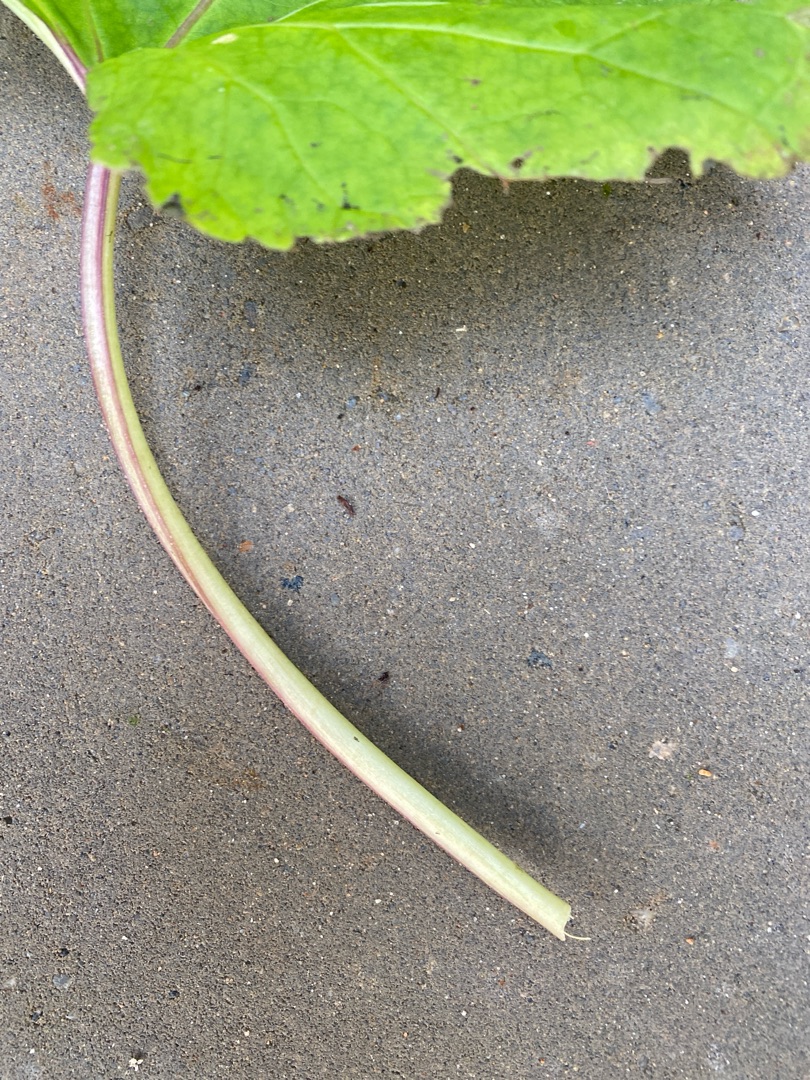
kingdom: Plantae
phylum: Tracheophyta
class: Magnoliopsida
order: Asterales
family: Asteraceae
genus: Tussilago
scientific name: Tussilago farfara
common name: Følfod
